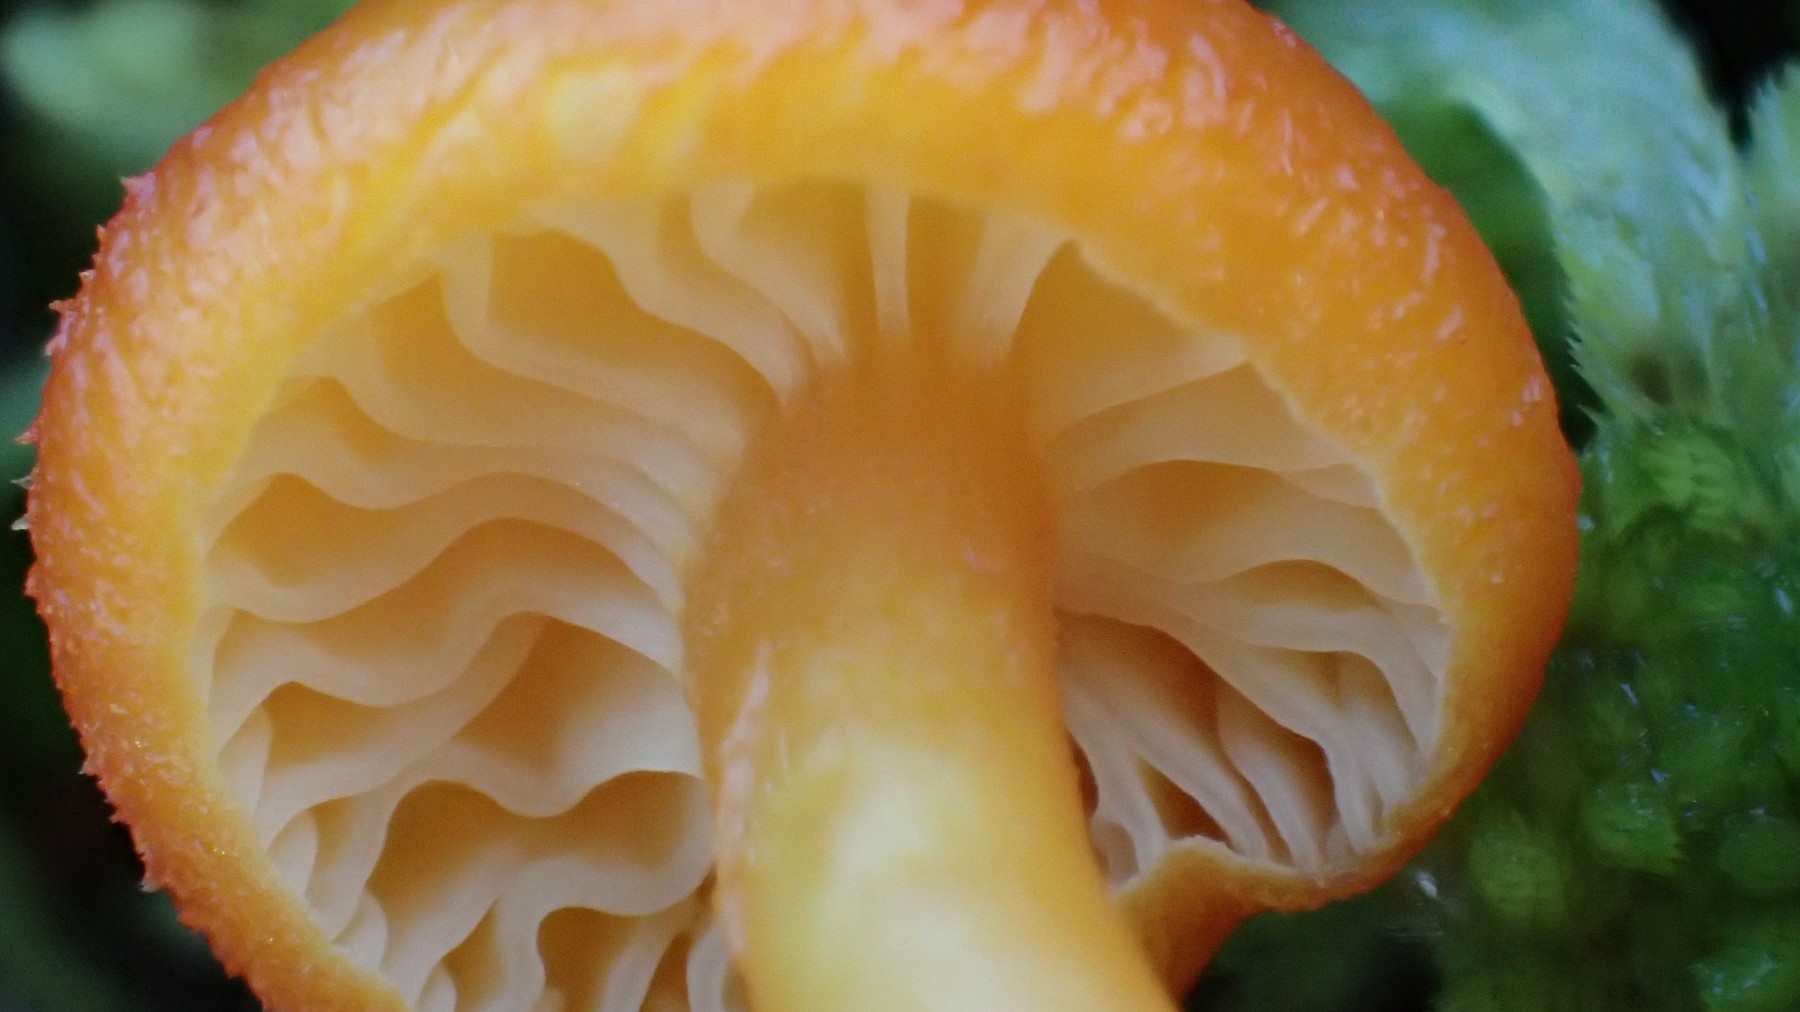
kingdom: Fungi
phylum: Basidiomycota
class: Agaricomycetes
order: Agaricales
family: Hygrophoraceae
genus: Hygrocybe
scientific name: Hygrocybe substrangulata
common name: kær-vokshat
